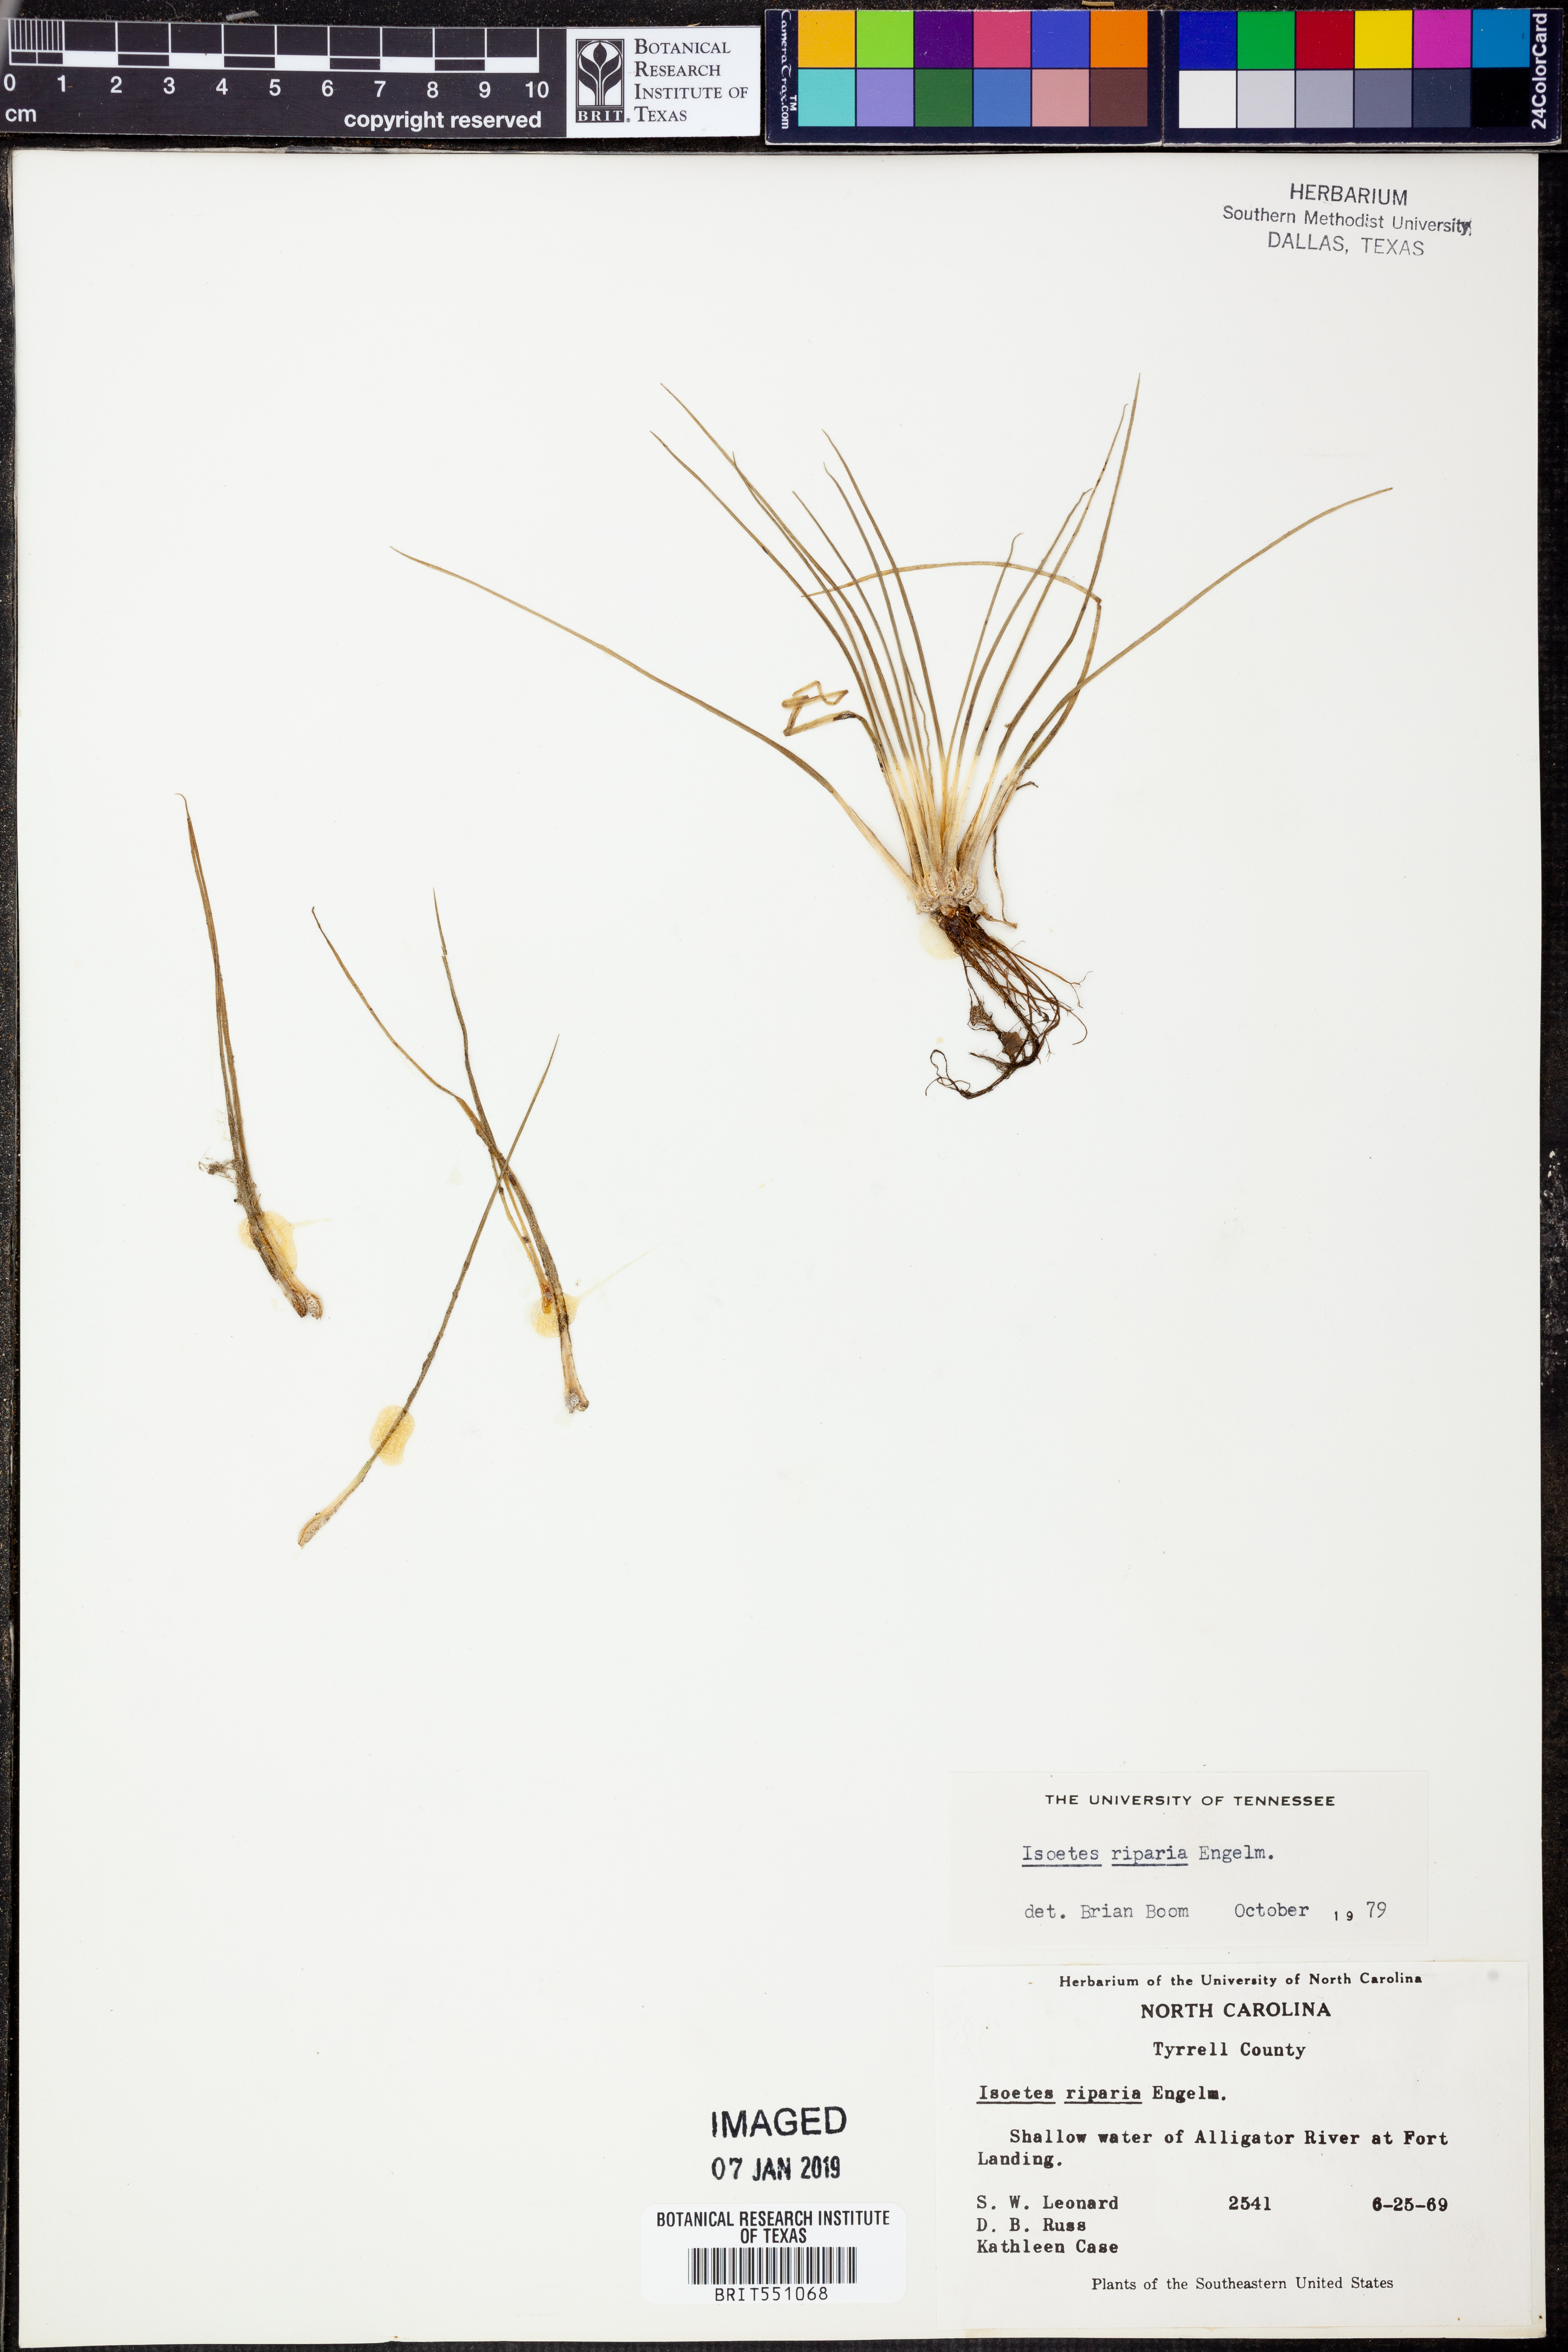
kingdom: Plantae
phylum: Tracheophyta
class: Lycopodiopsida
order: Isoetales
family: Isoetaceae
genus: Isoetes
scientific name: Isoetes riparia
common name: Riverbank quillwort
